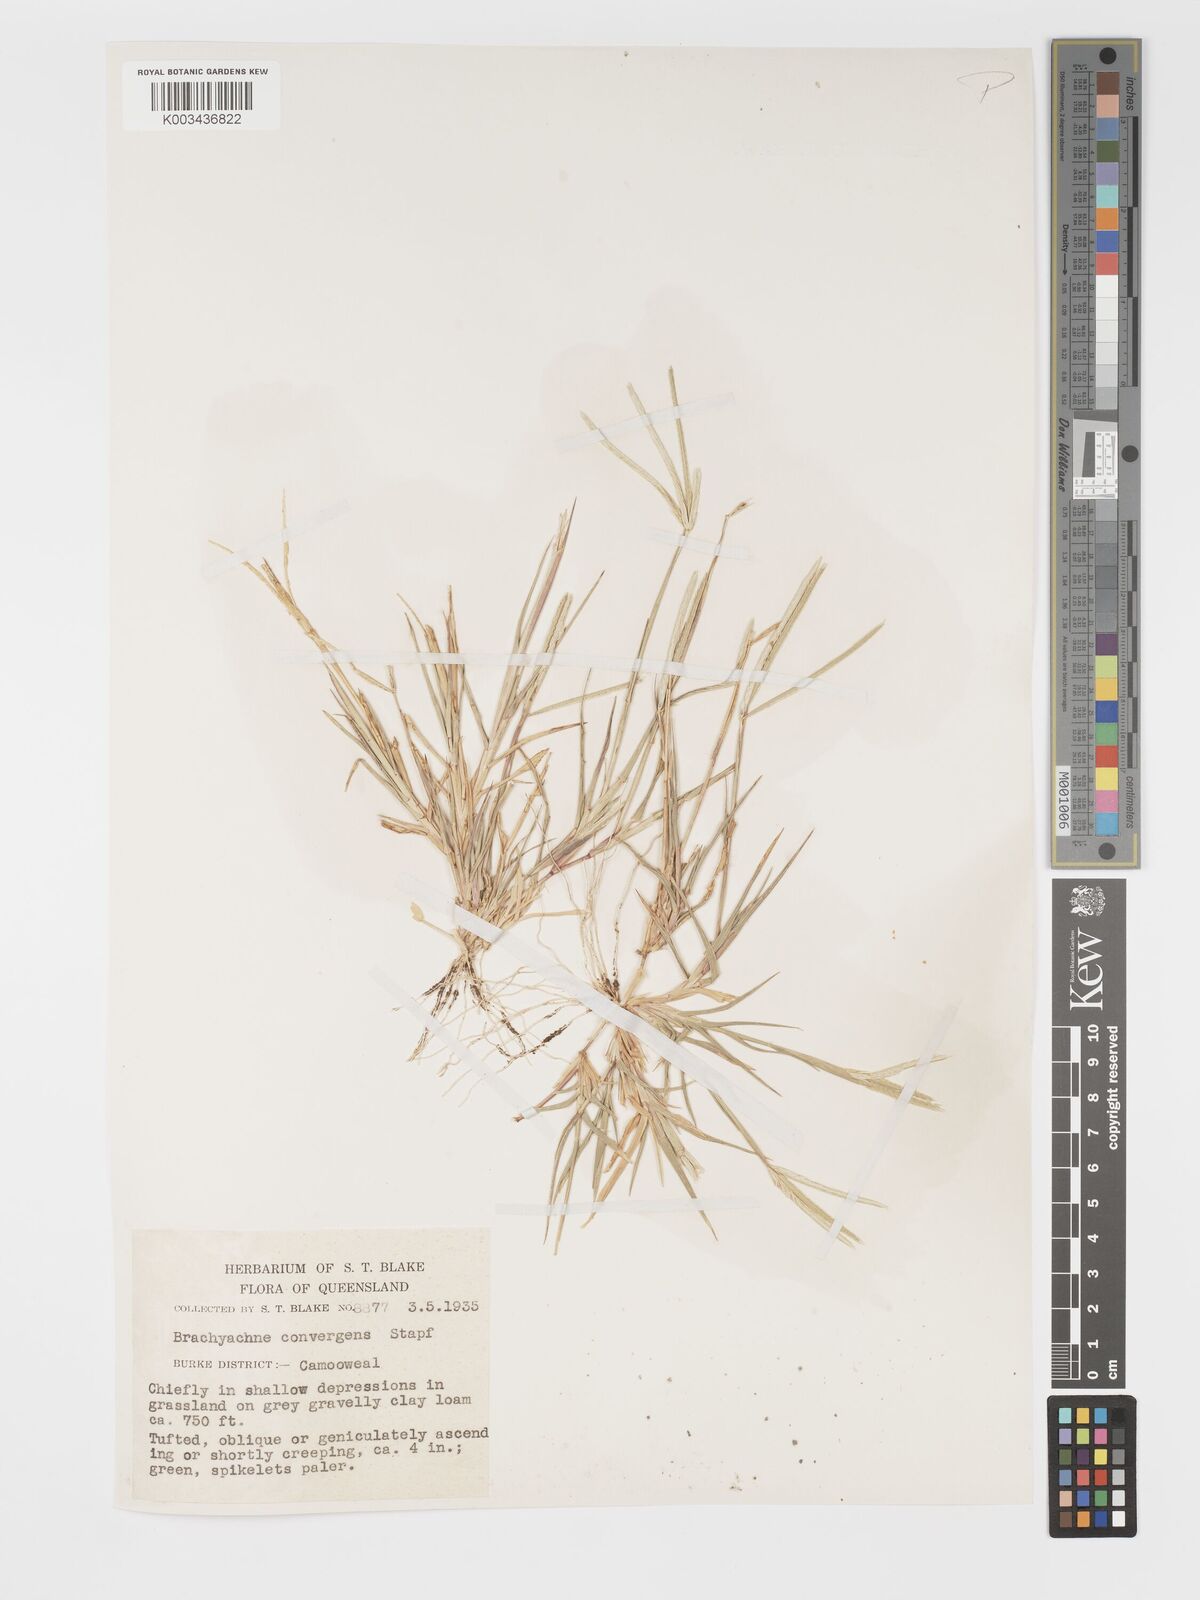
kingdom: Plantae
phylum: Tracheophyta
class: Liliopsida
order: Poales
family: Poaceae
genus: Cynodon
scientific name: Cynodon convergens
